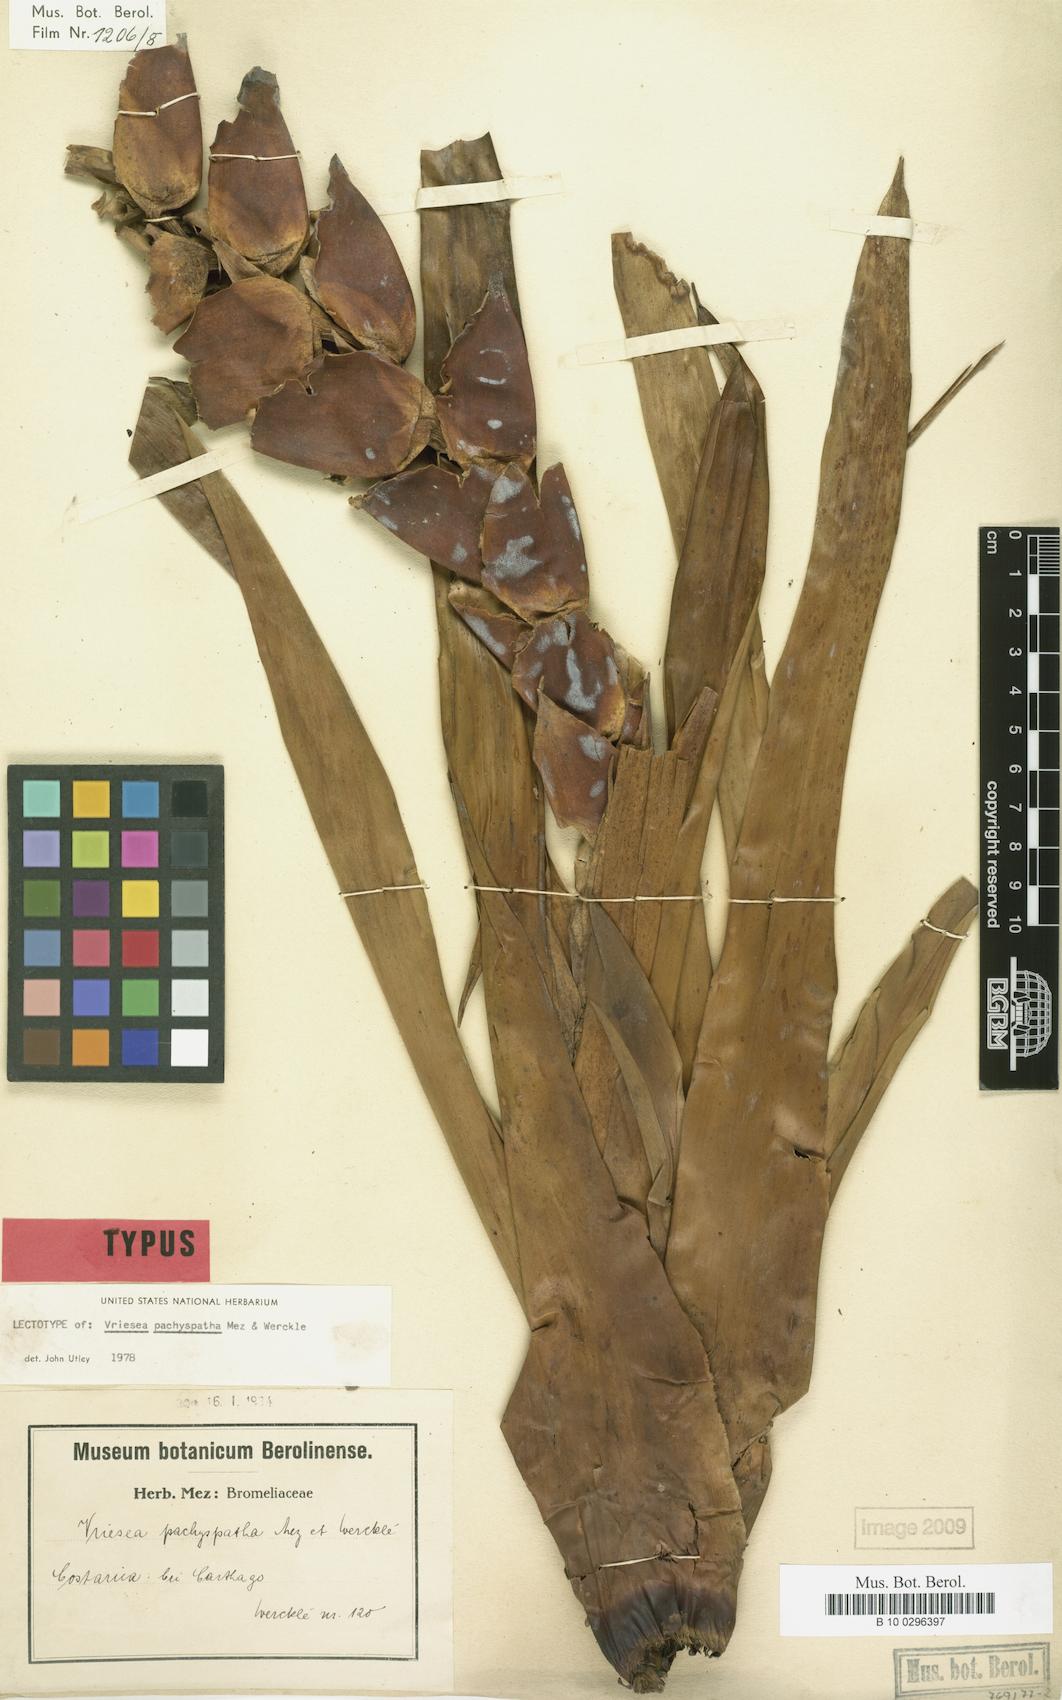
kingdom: Plantae
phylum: Tracheophyta
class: Liliopsida
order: Poales
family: Bromeliaceae
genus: Werauhia
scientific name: Werauhia gladioliflora
